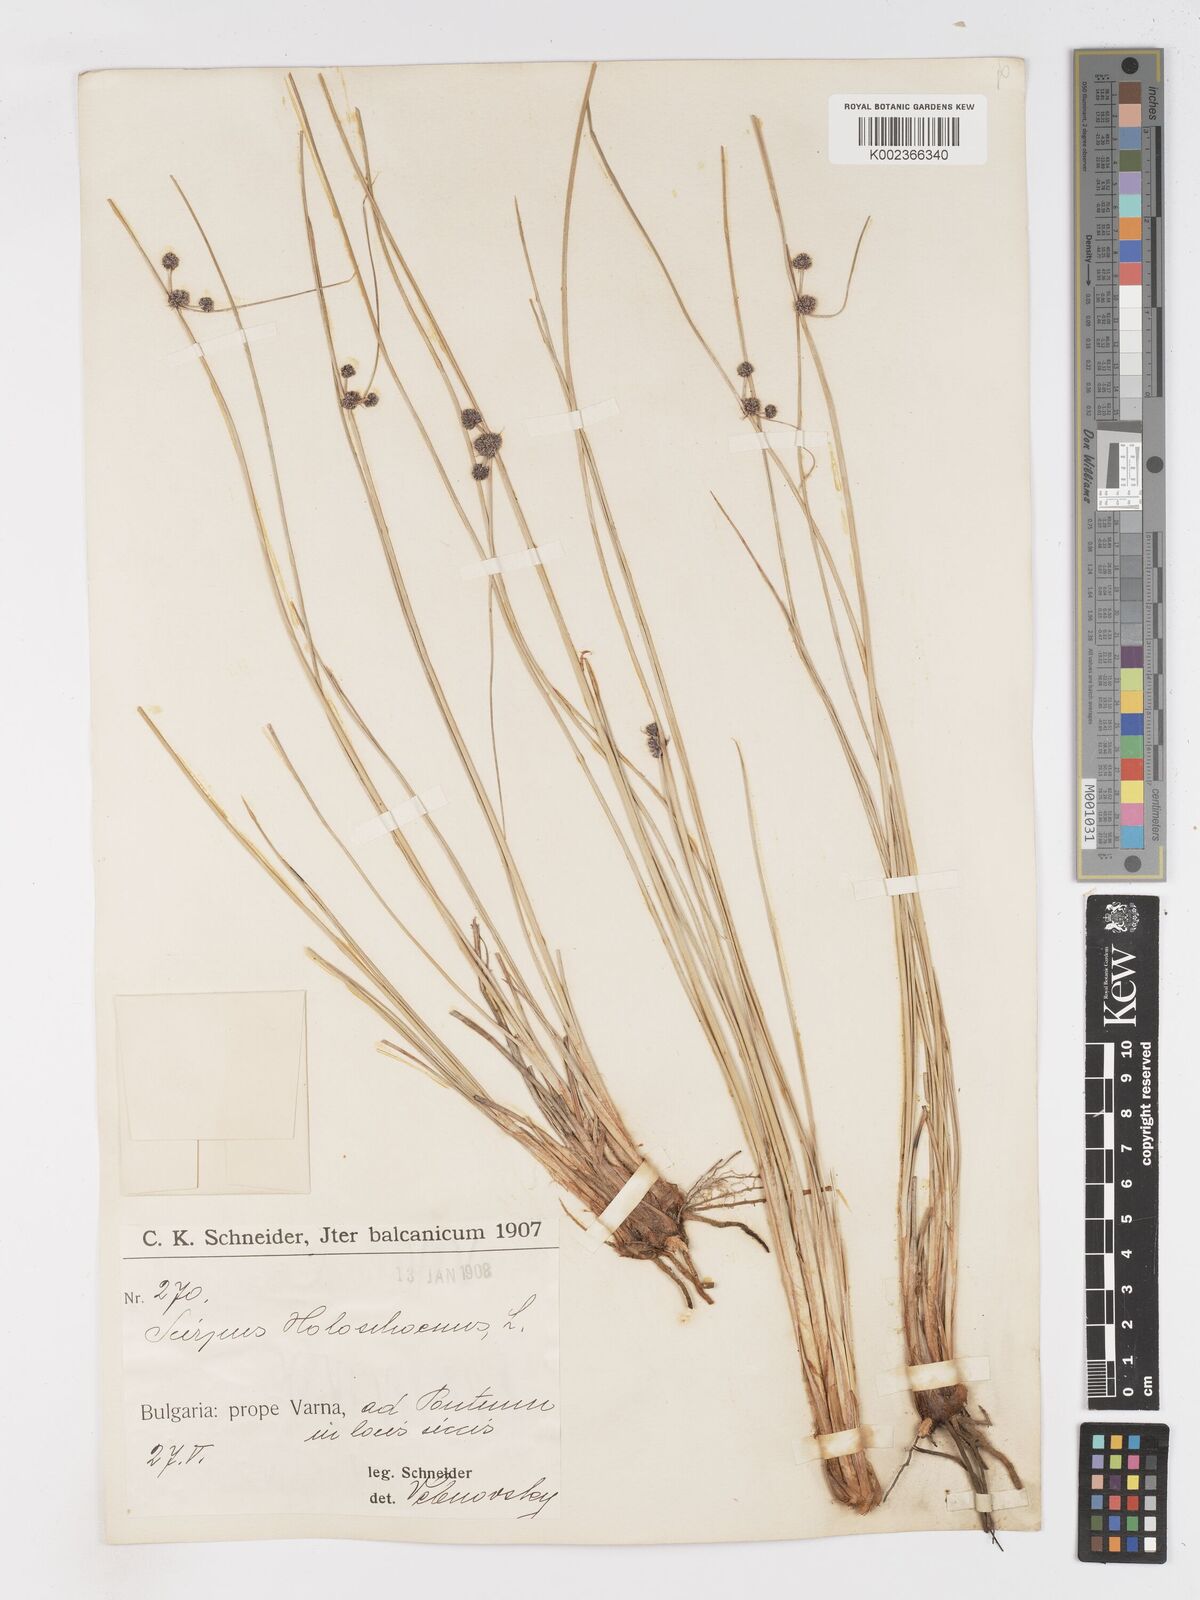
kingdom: Plantae
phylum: Tracheophyta
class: Liliopsida
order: Poales
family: Cyperaceae
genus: Scirpoides
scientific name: Scirpoides holoschoenus
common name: Round-headed club-rush
